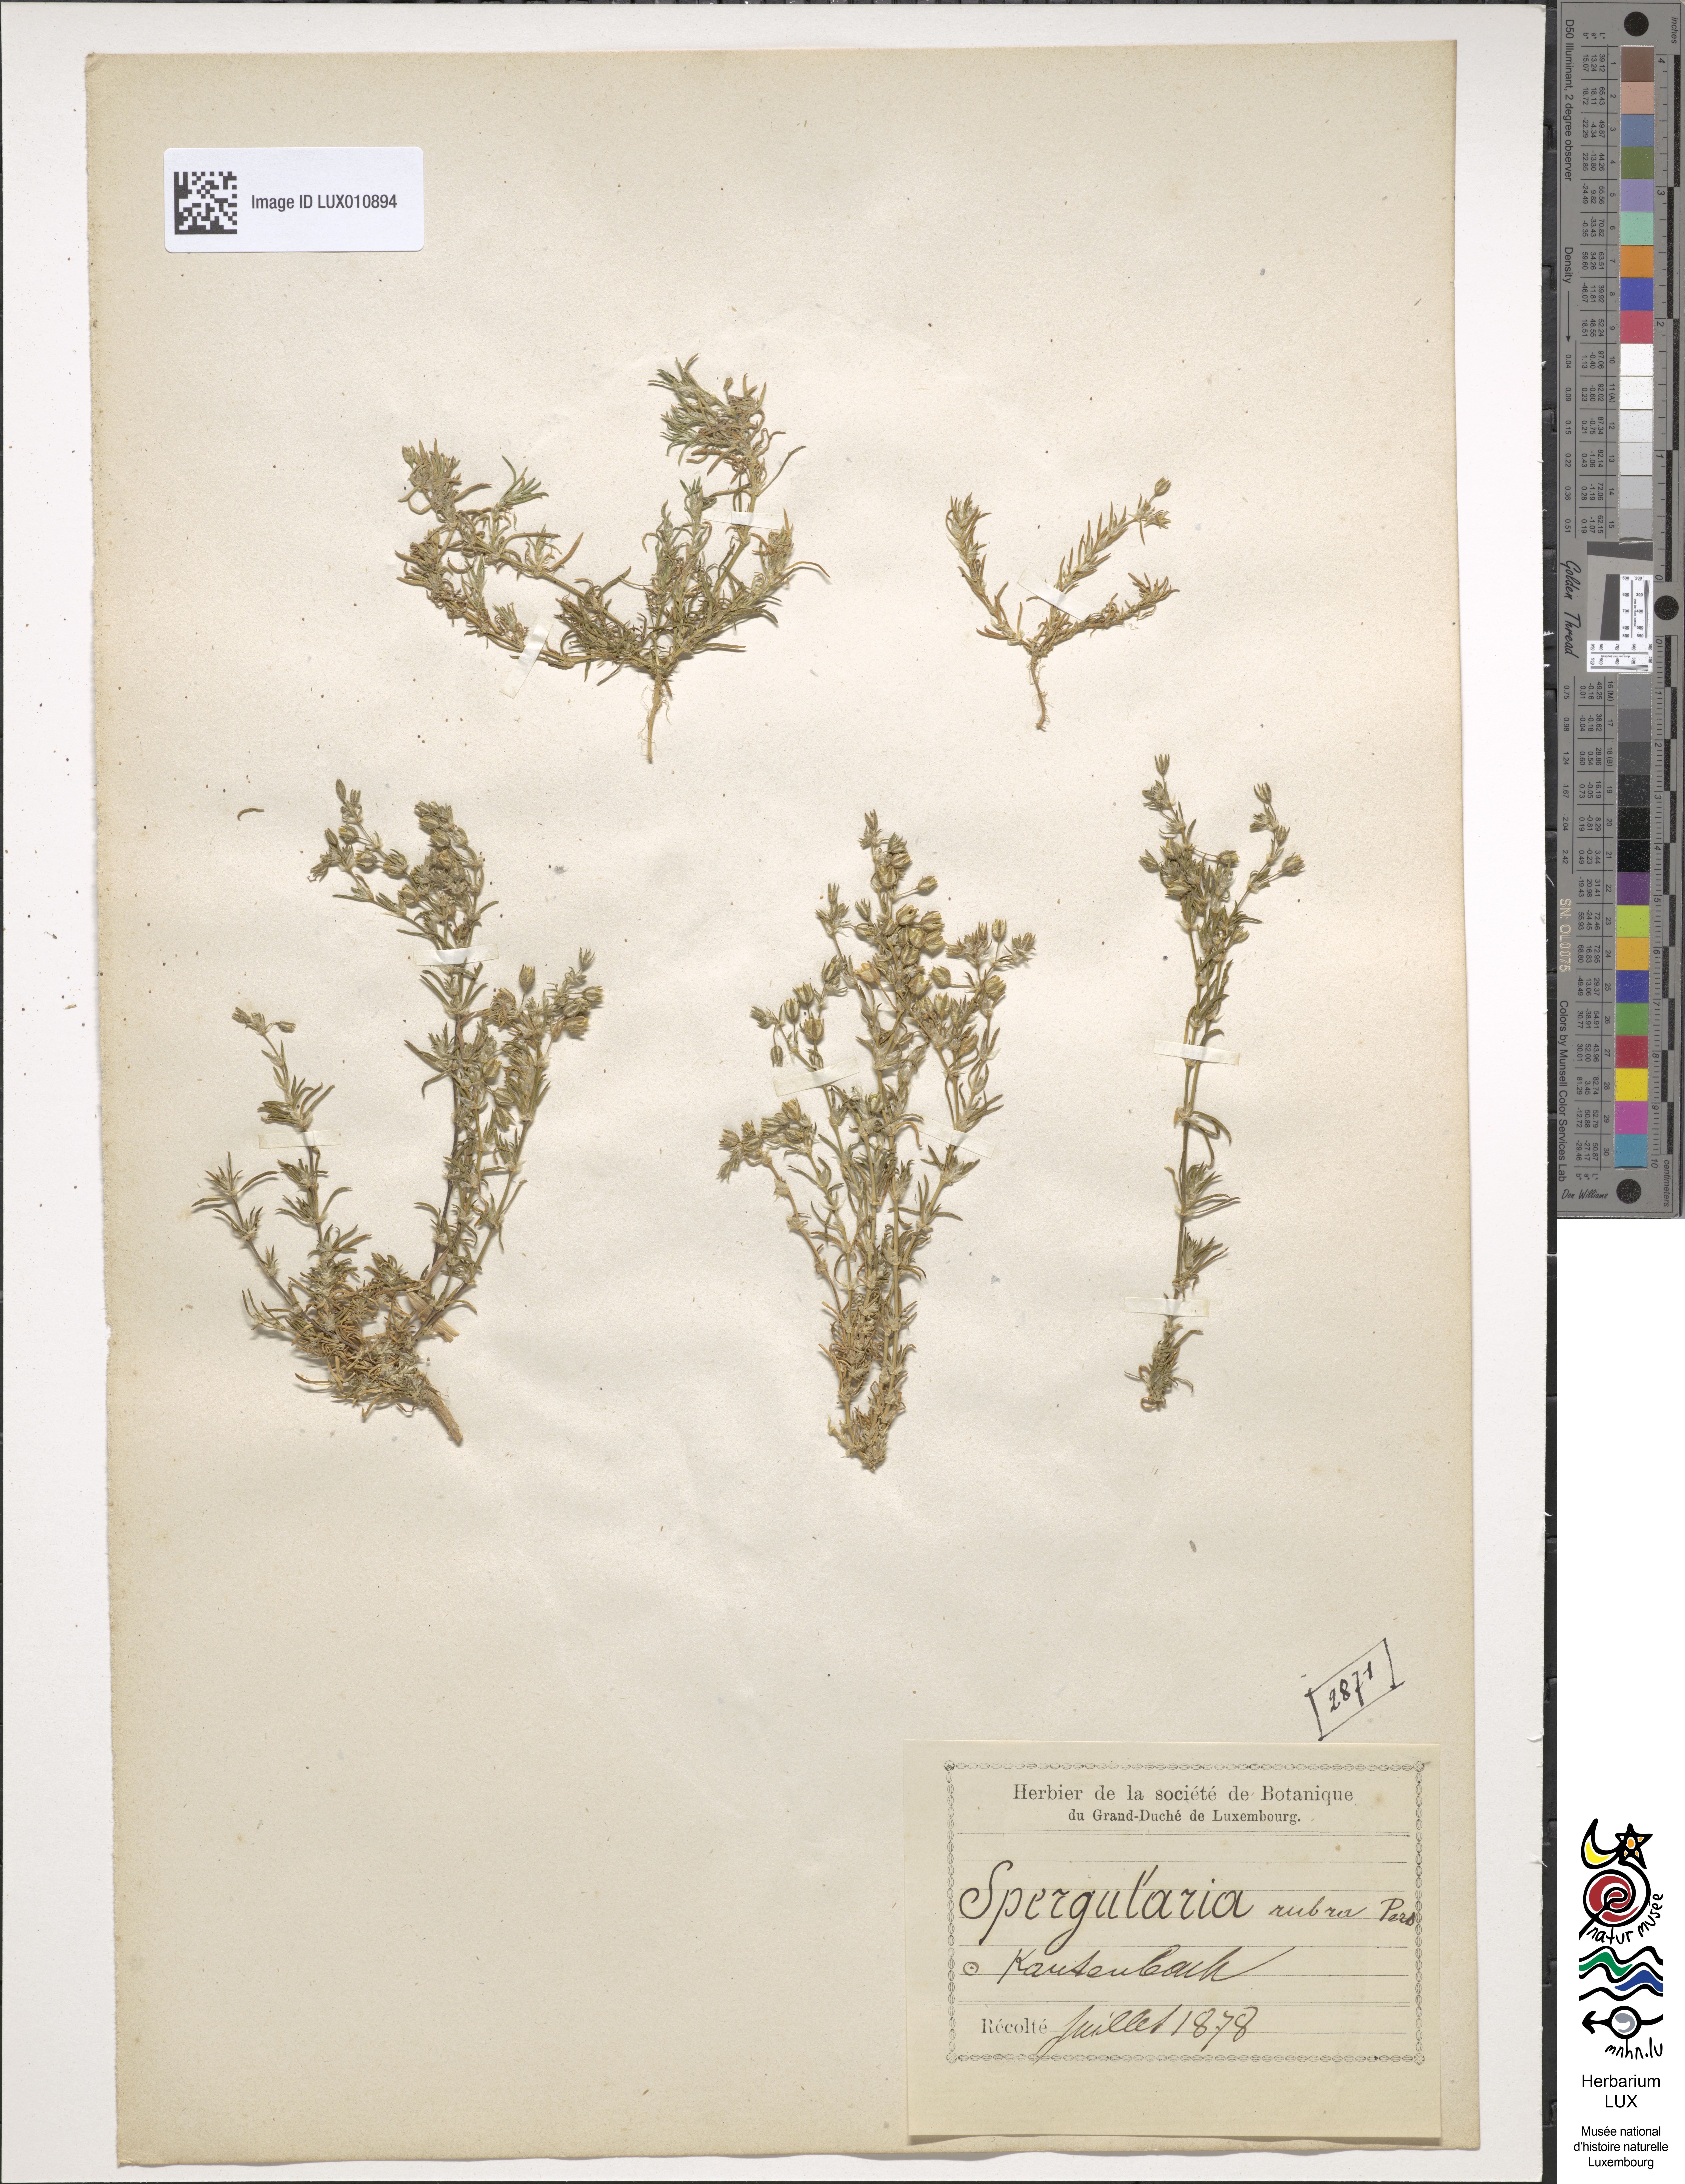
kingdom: Plantae
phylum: Tracheophyta
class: Magnoliopsida
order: Caryophyllales
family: Caryophyllaceae
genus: Spergularia
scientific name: Spergularia rubra
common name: Red sand-spurrey
